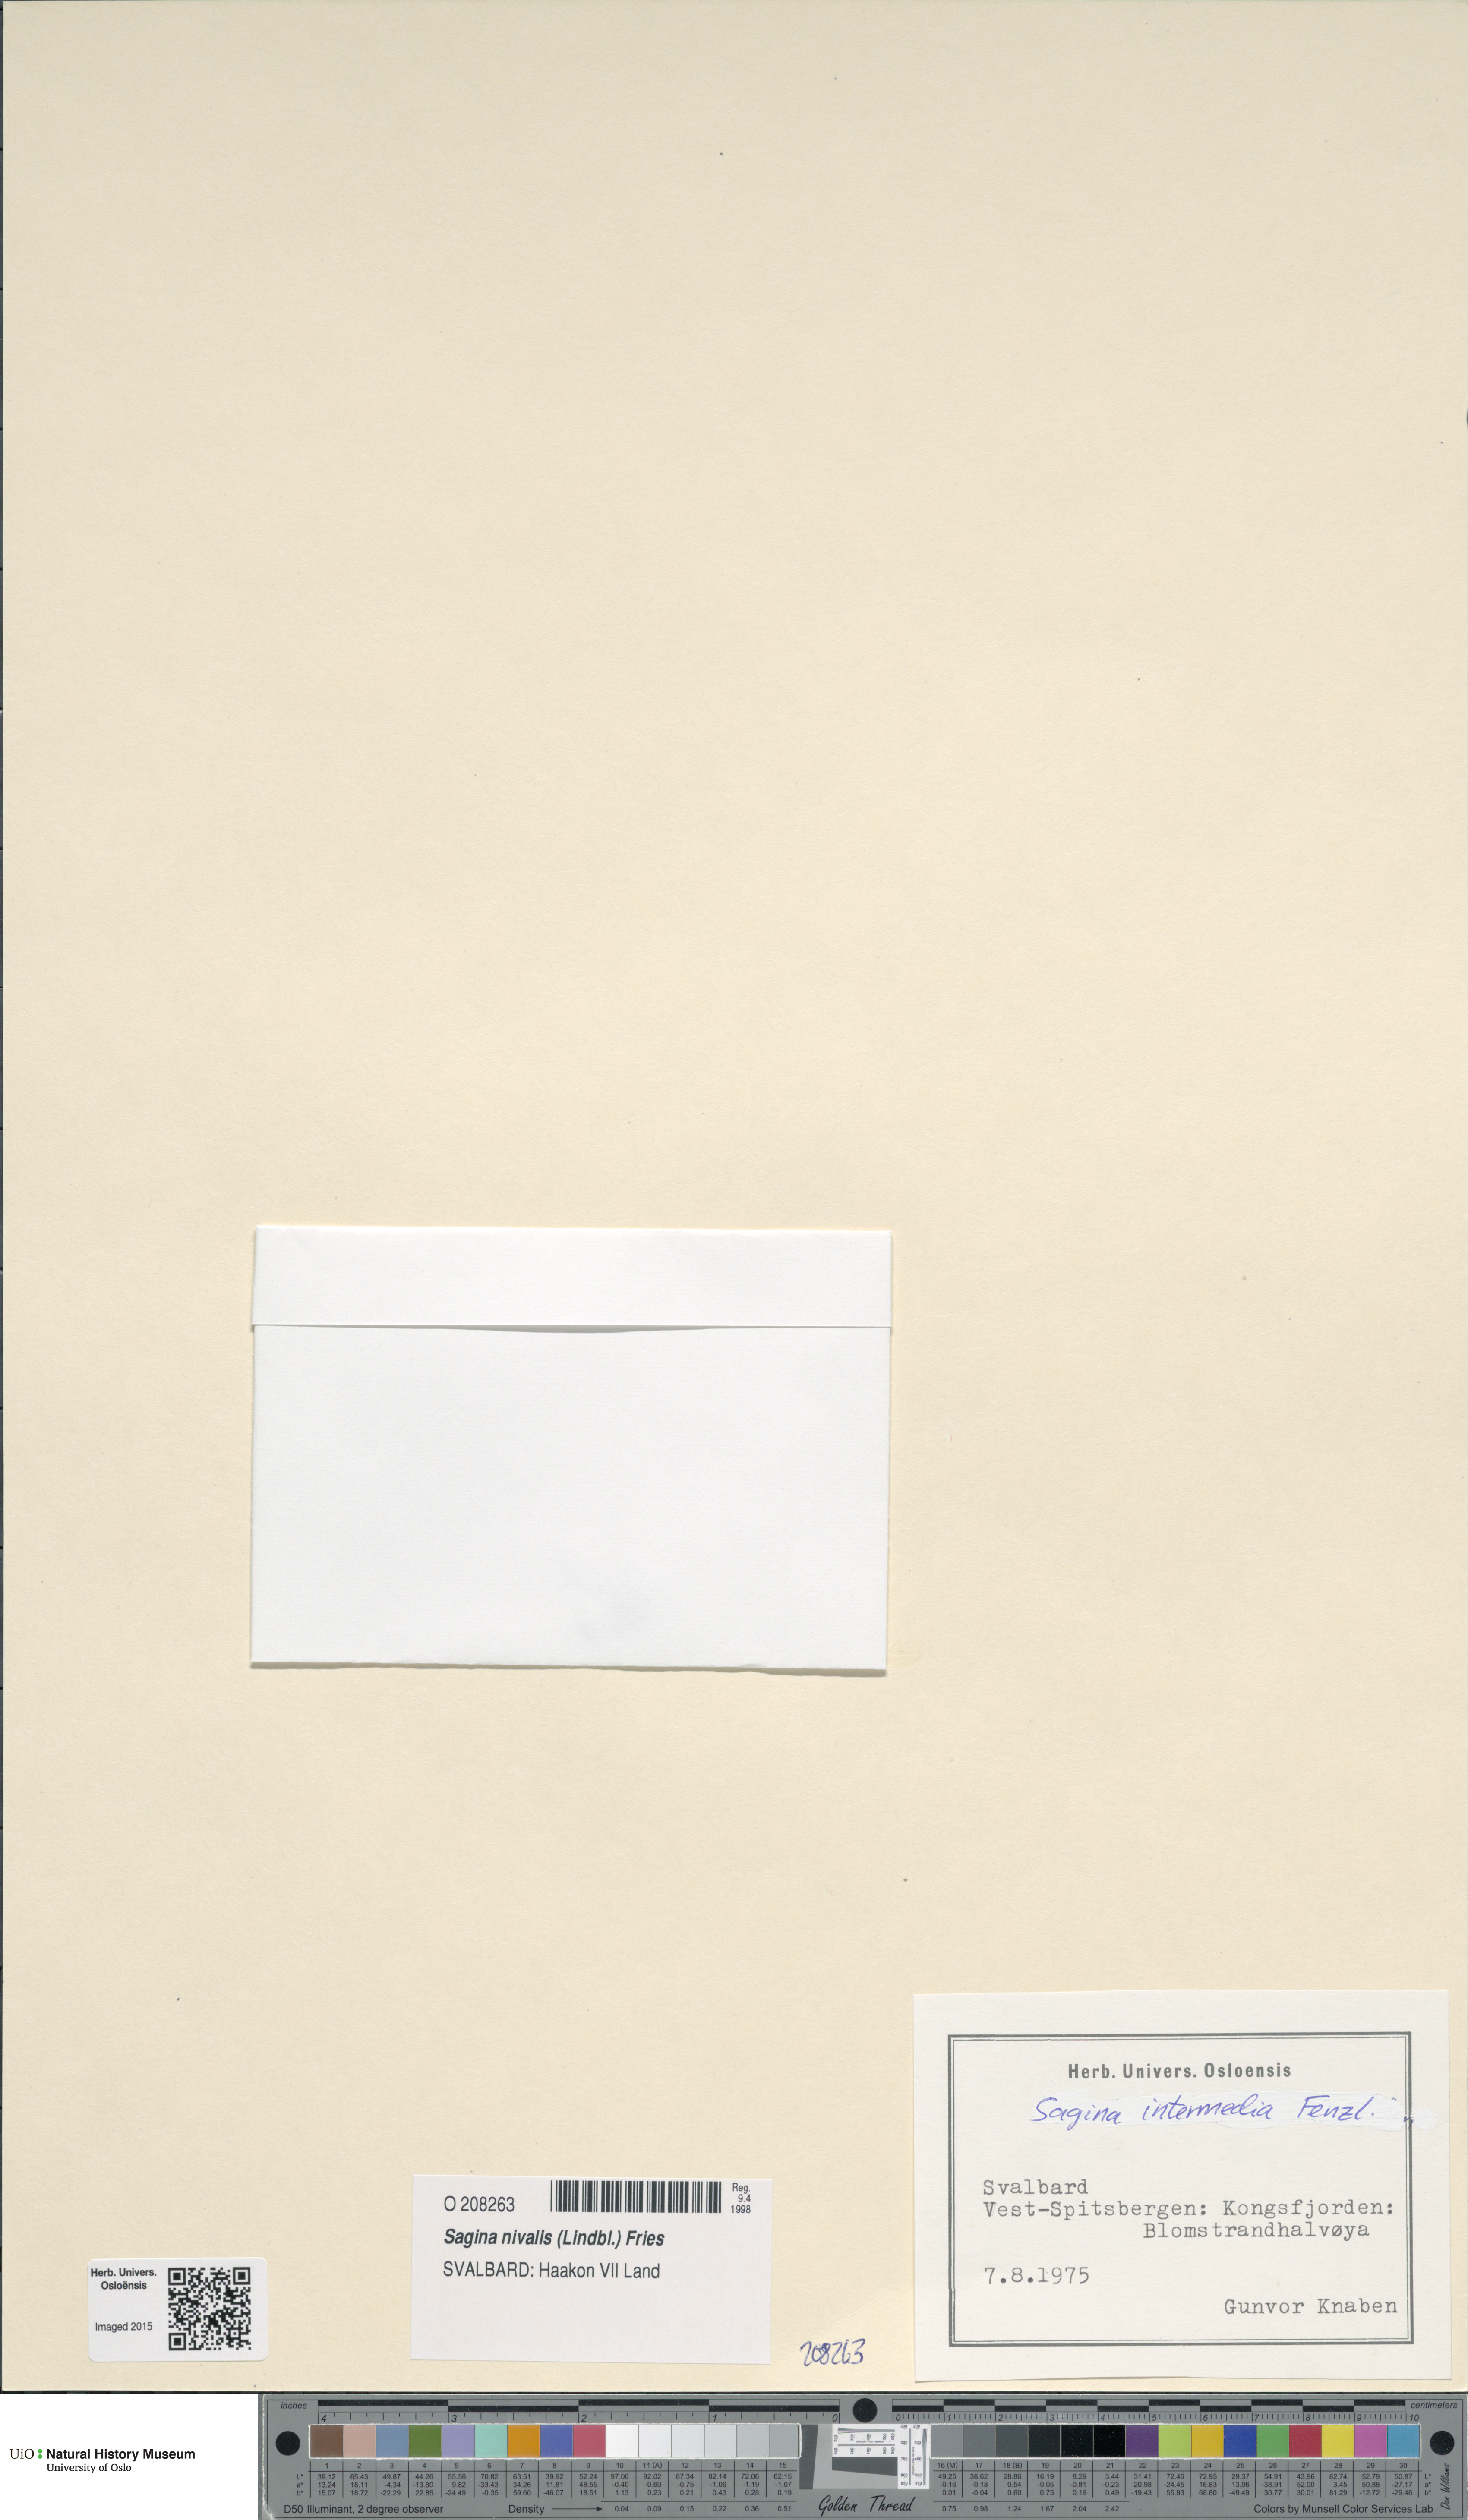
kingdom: Plantae
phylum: Tracheophyta
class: Magnoliopsida
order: Caryophyllales
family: Caryophyllaceae
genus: Sagina
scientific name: Sagina nivalis
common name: Snow pearlwort
